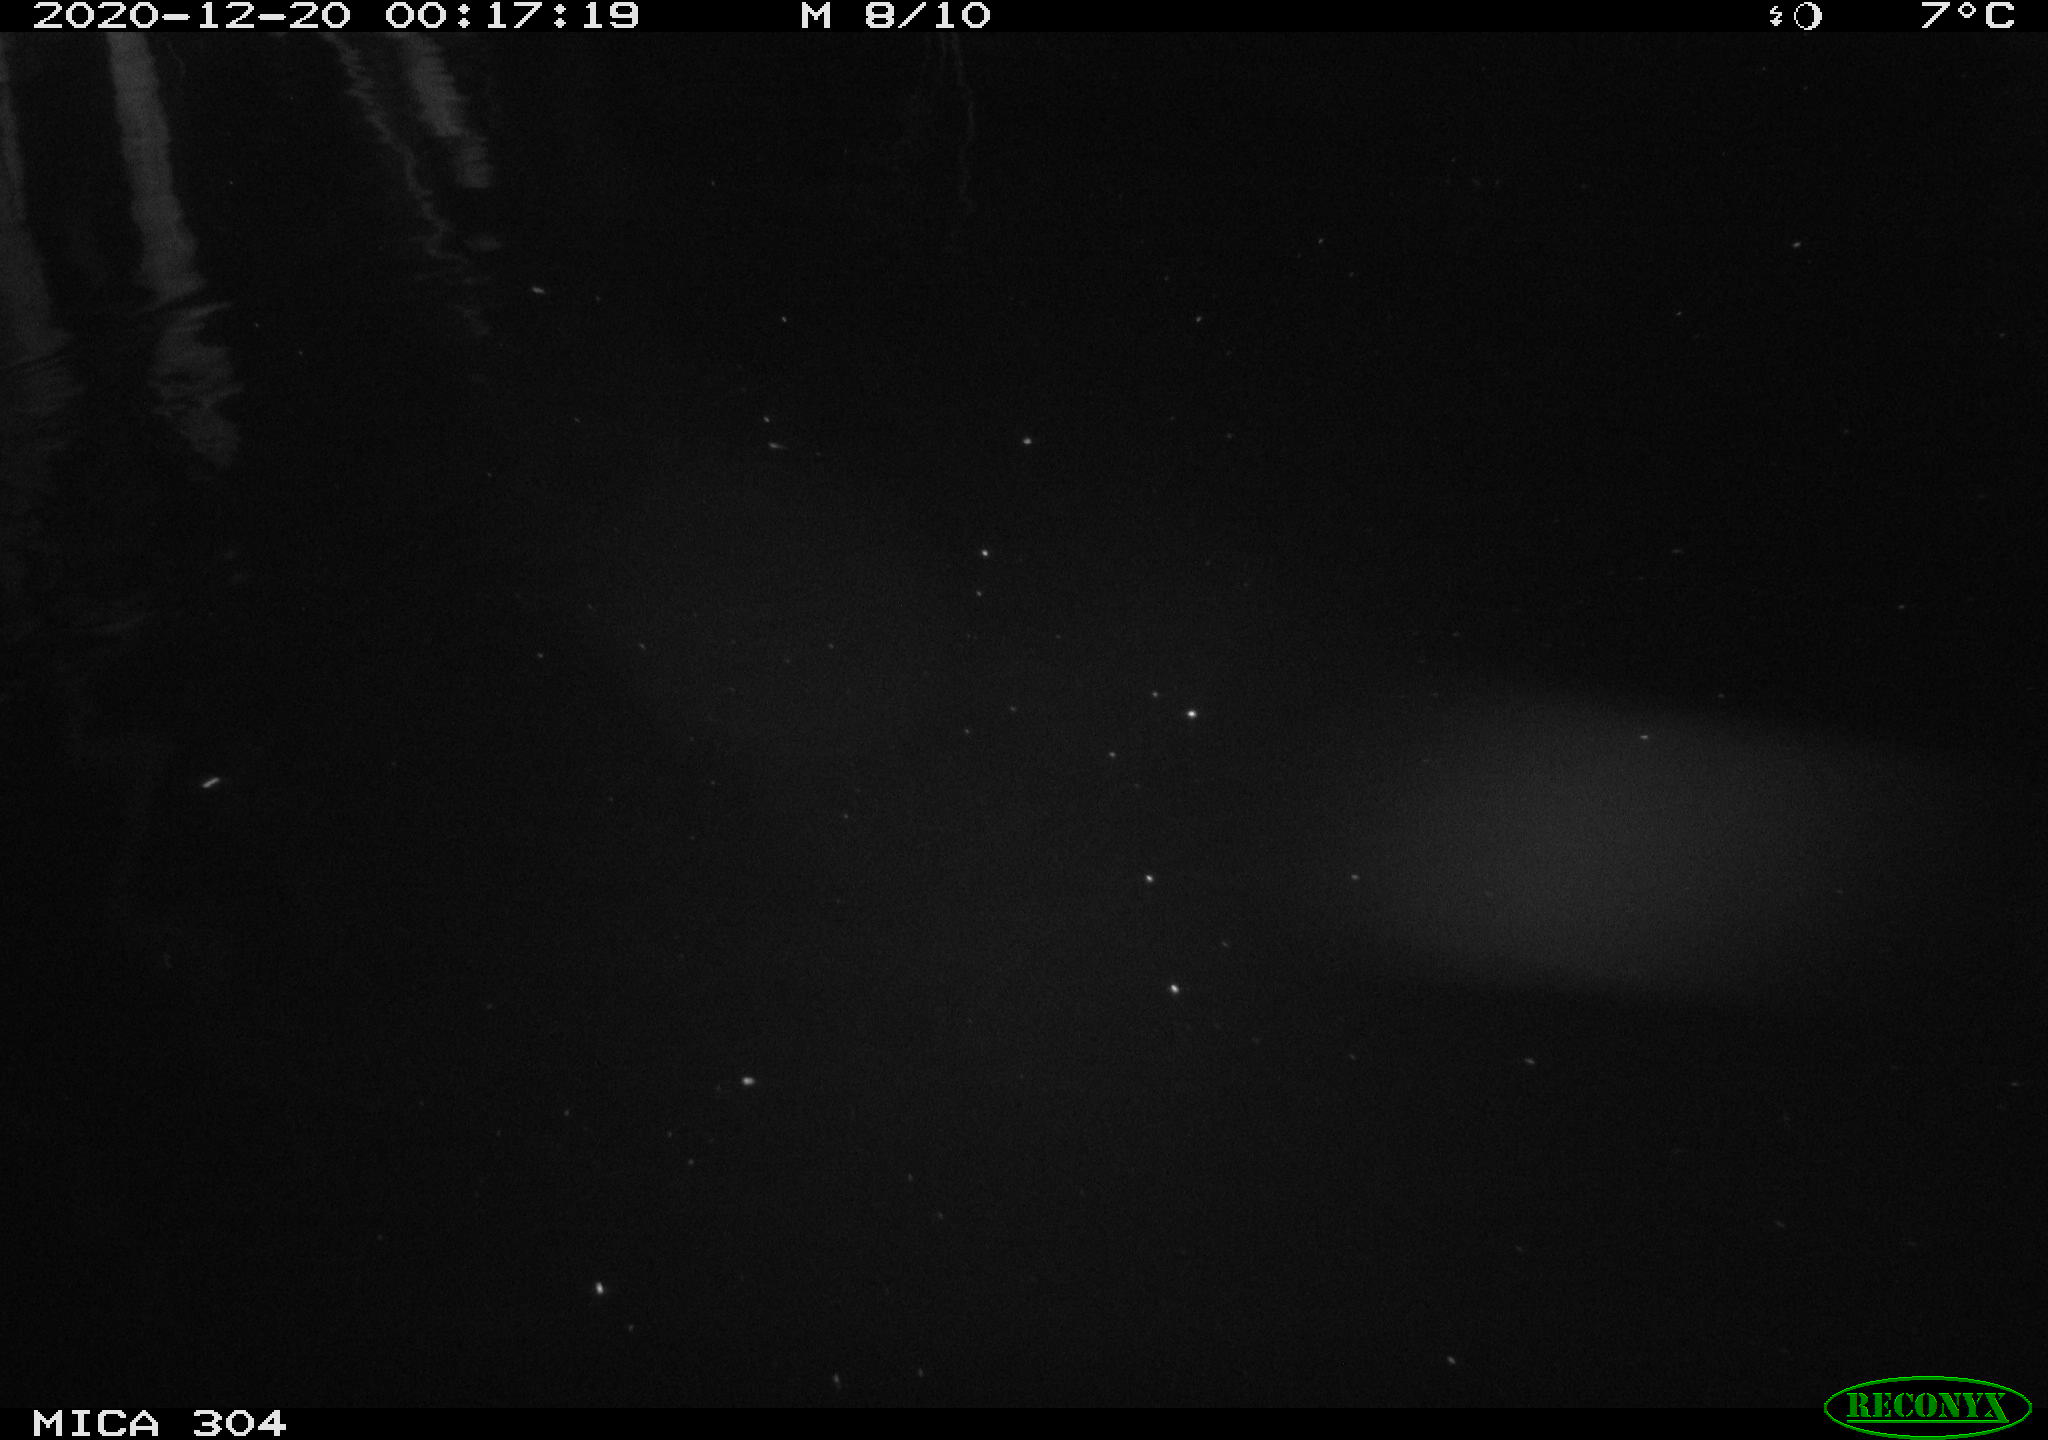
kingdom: Animalia
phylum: Chordata
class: Mammalia
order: Rodentia
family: Muridae
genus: Rattus
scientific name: Rattus norvegicus
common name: Brown rat
